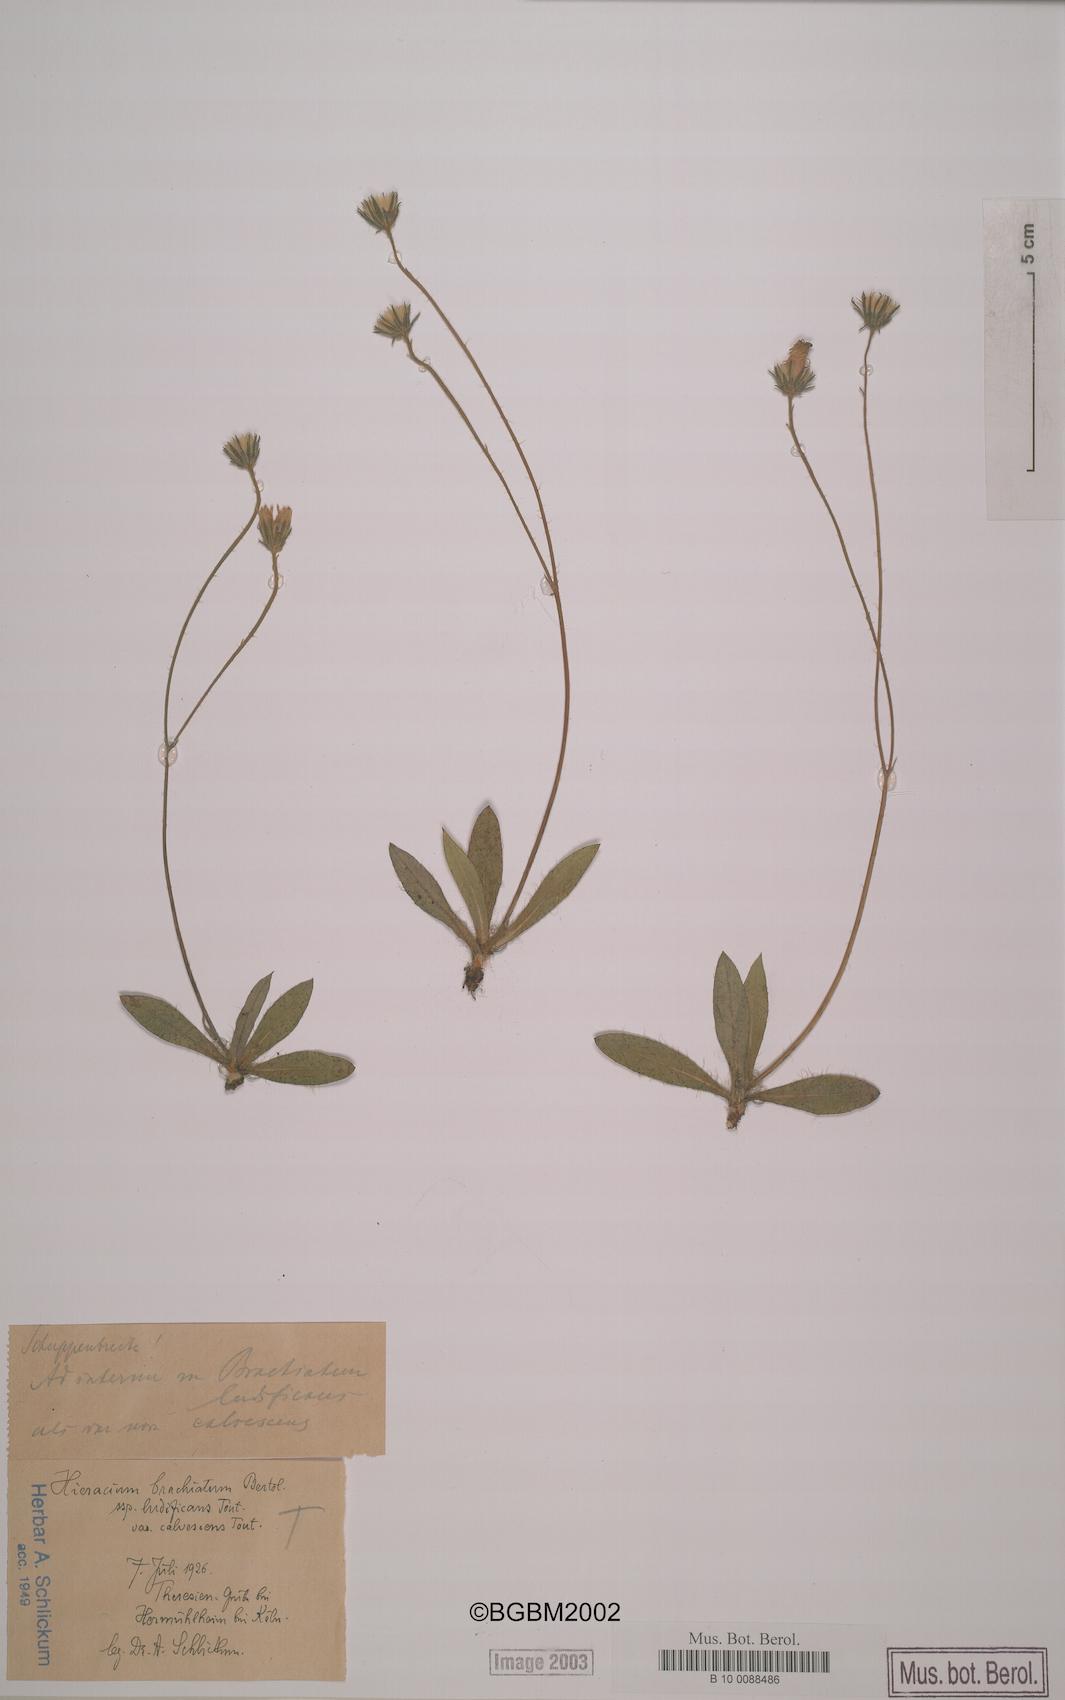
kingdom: Plantae
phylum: Tracheophyta
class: Magnoliopsida
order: Asterales
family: Asteraceae
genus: Pilosella
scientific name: Pilosella acutifolia
